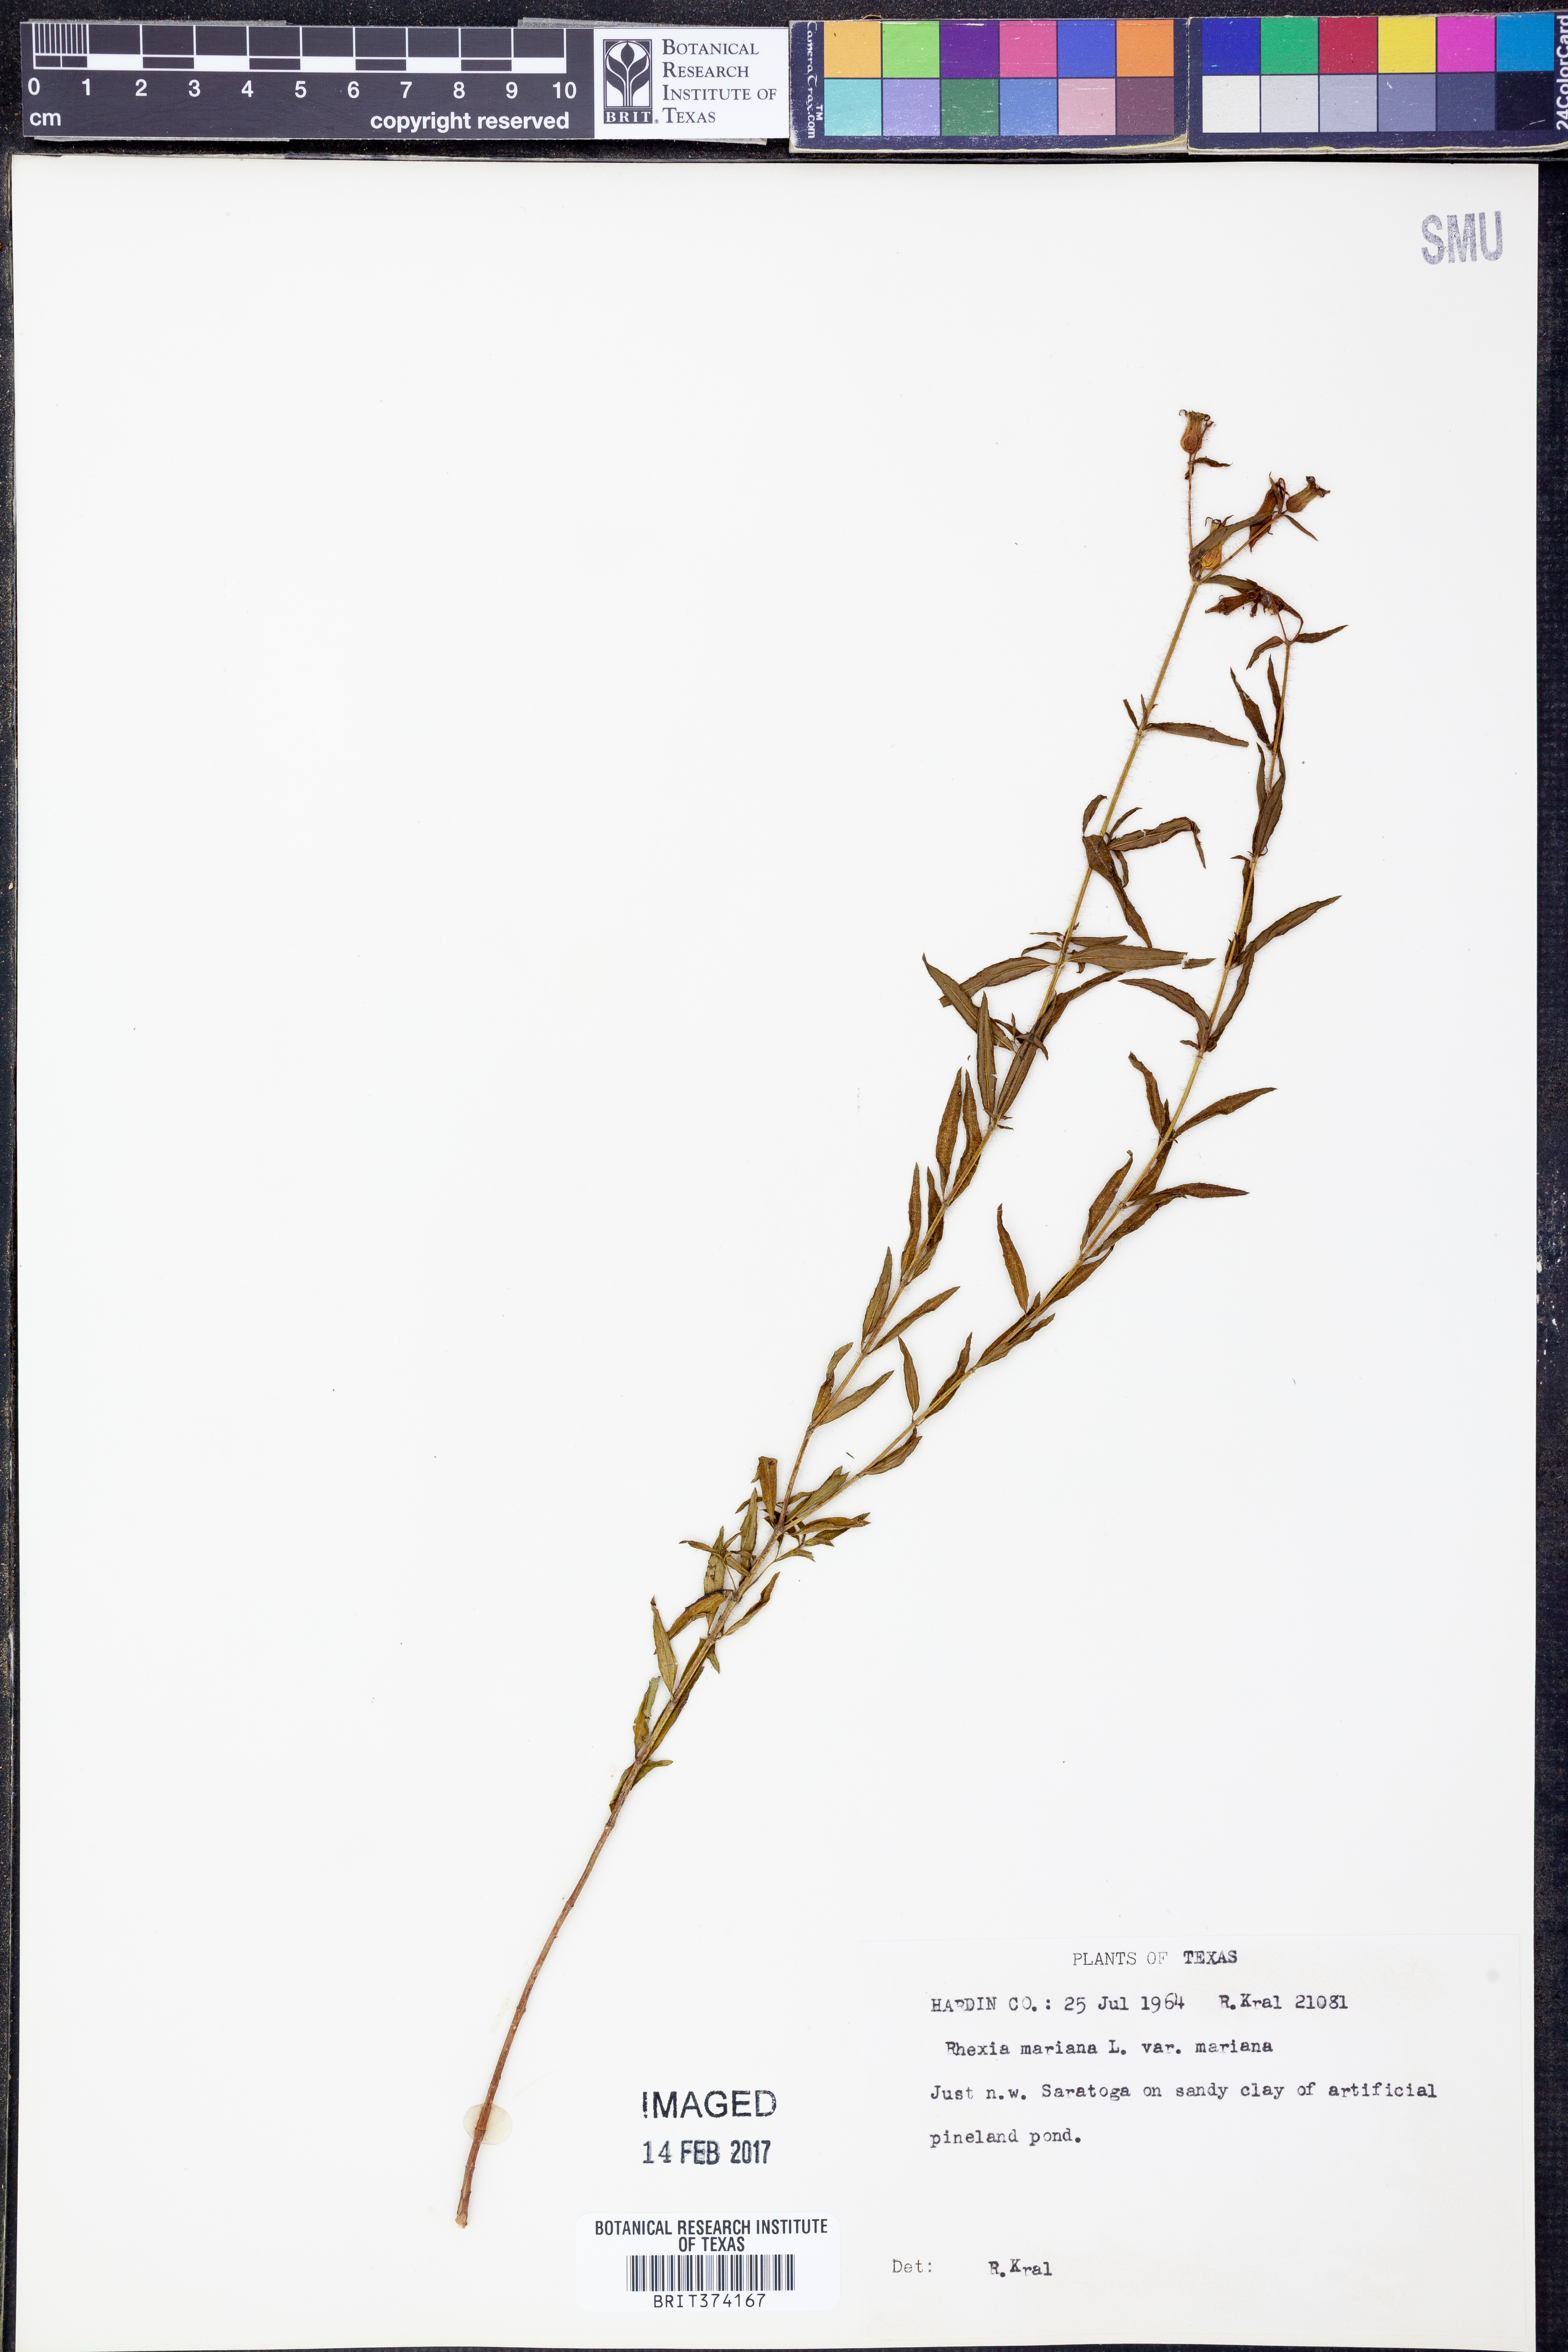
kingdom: Plantae
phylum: Tracheophyta
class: Magnoliopsida
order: Myrtales
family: Melastomataceae
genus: Rhexia
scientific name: Rhexia mariana
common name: Dull meadow-pitcher
